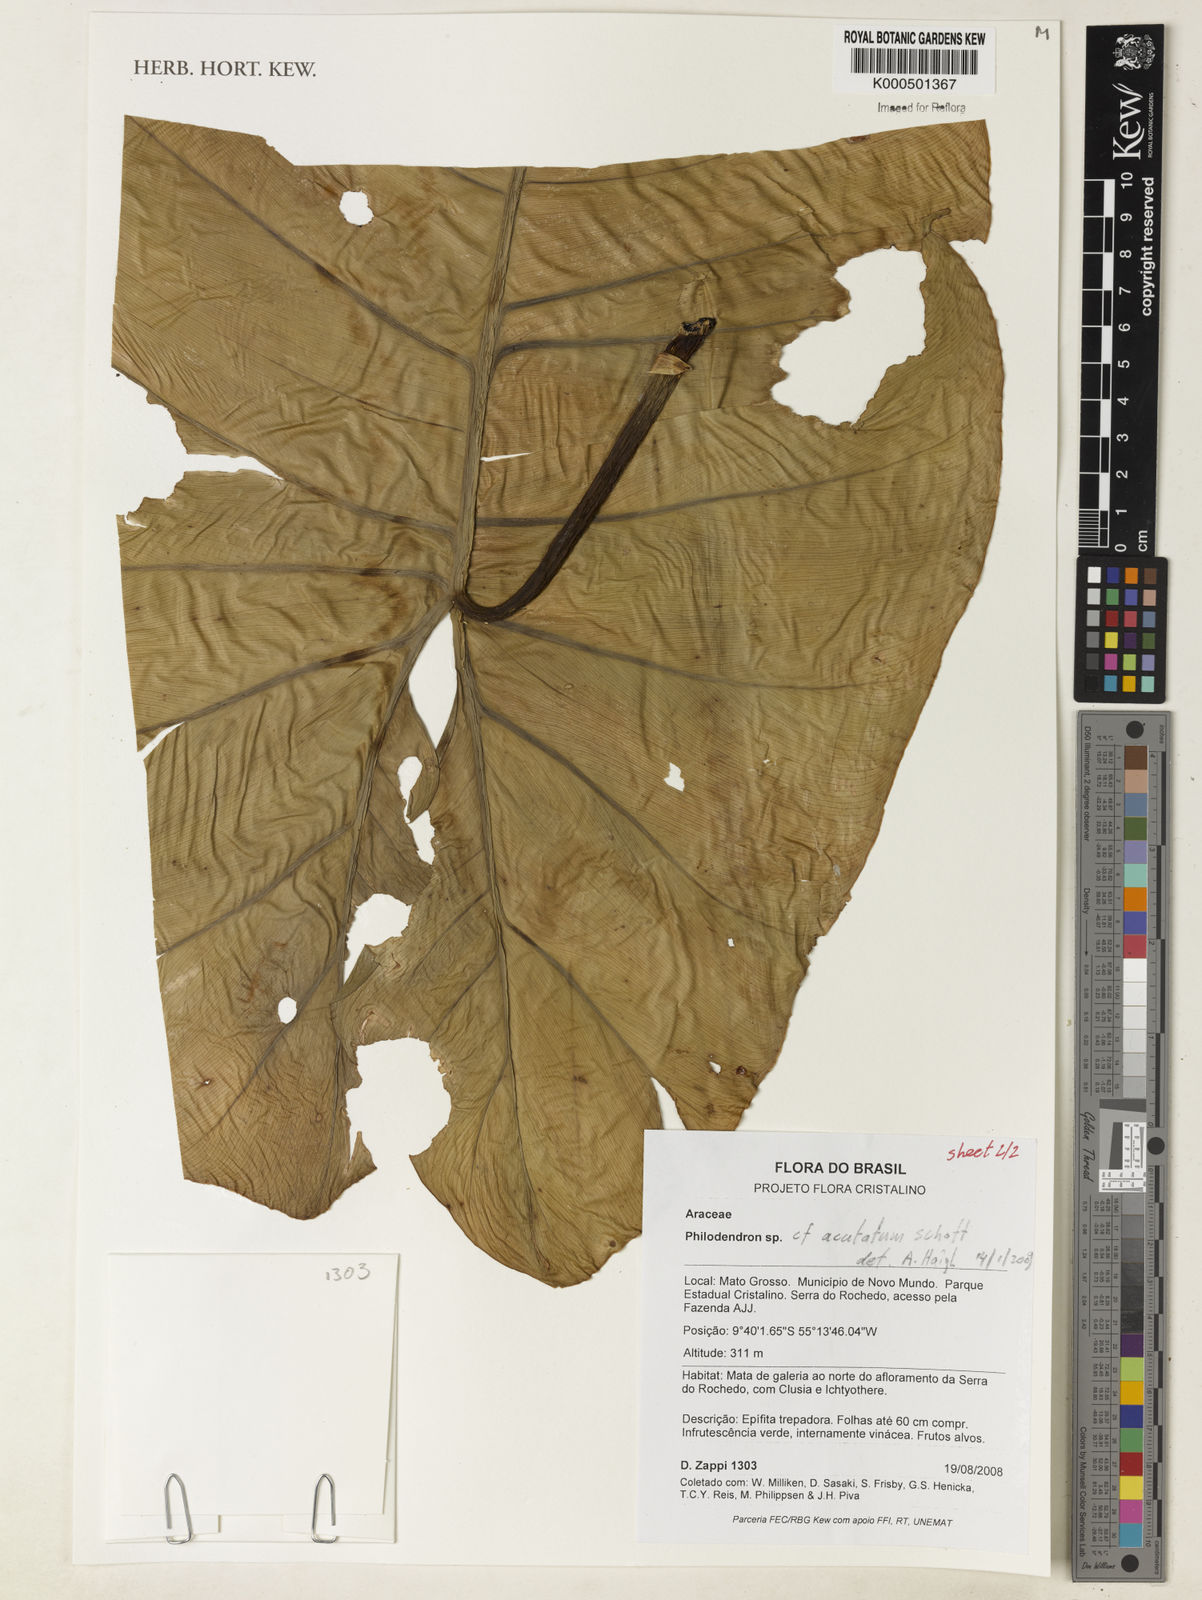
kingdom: Plantae
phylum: Tracheophyta
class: Liliopsida
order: Alismatales
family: Araceae
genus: Philodendron
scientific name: Philodendron quinquenervium
